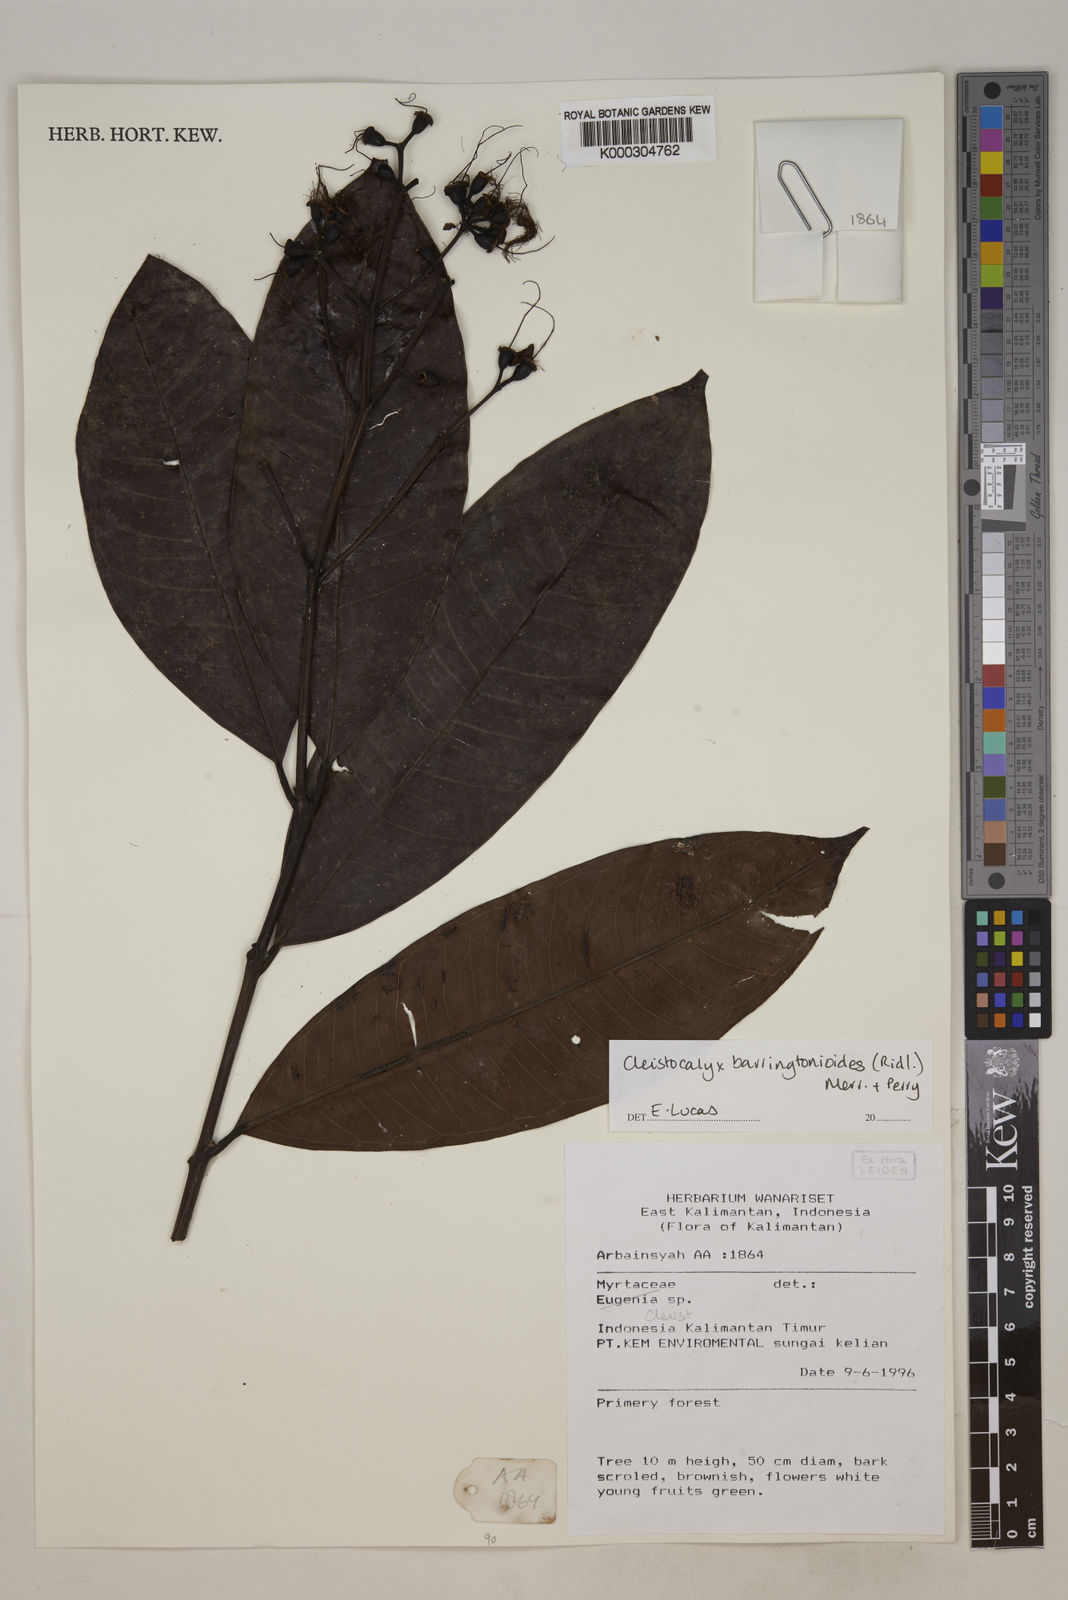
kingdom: Plantae
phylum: Tracheophyta
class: Magnoliopsida
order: Myrtales
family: Myrtaceae
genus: Syzygium
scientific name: Syzygium barringtonioides
